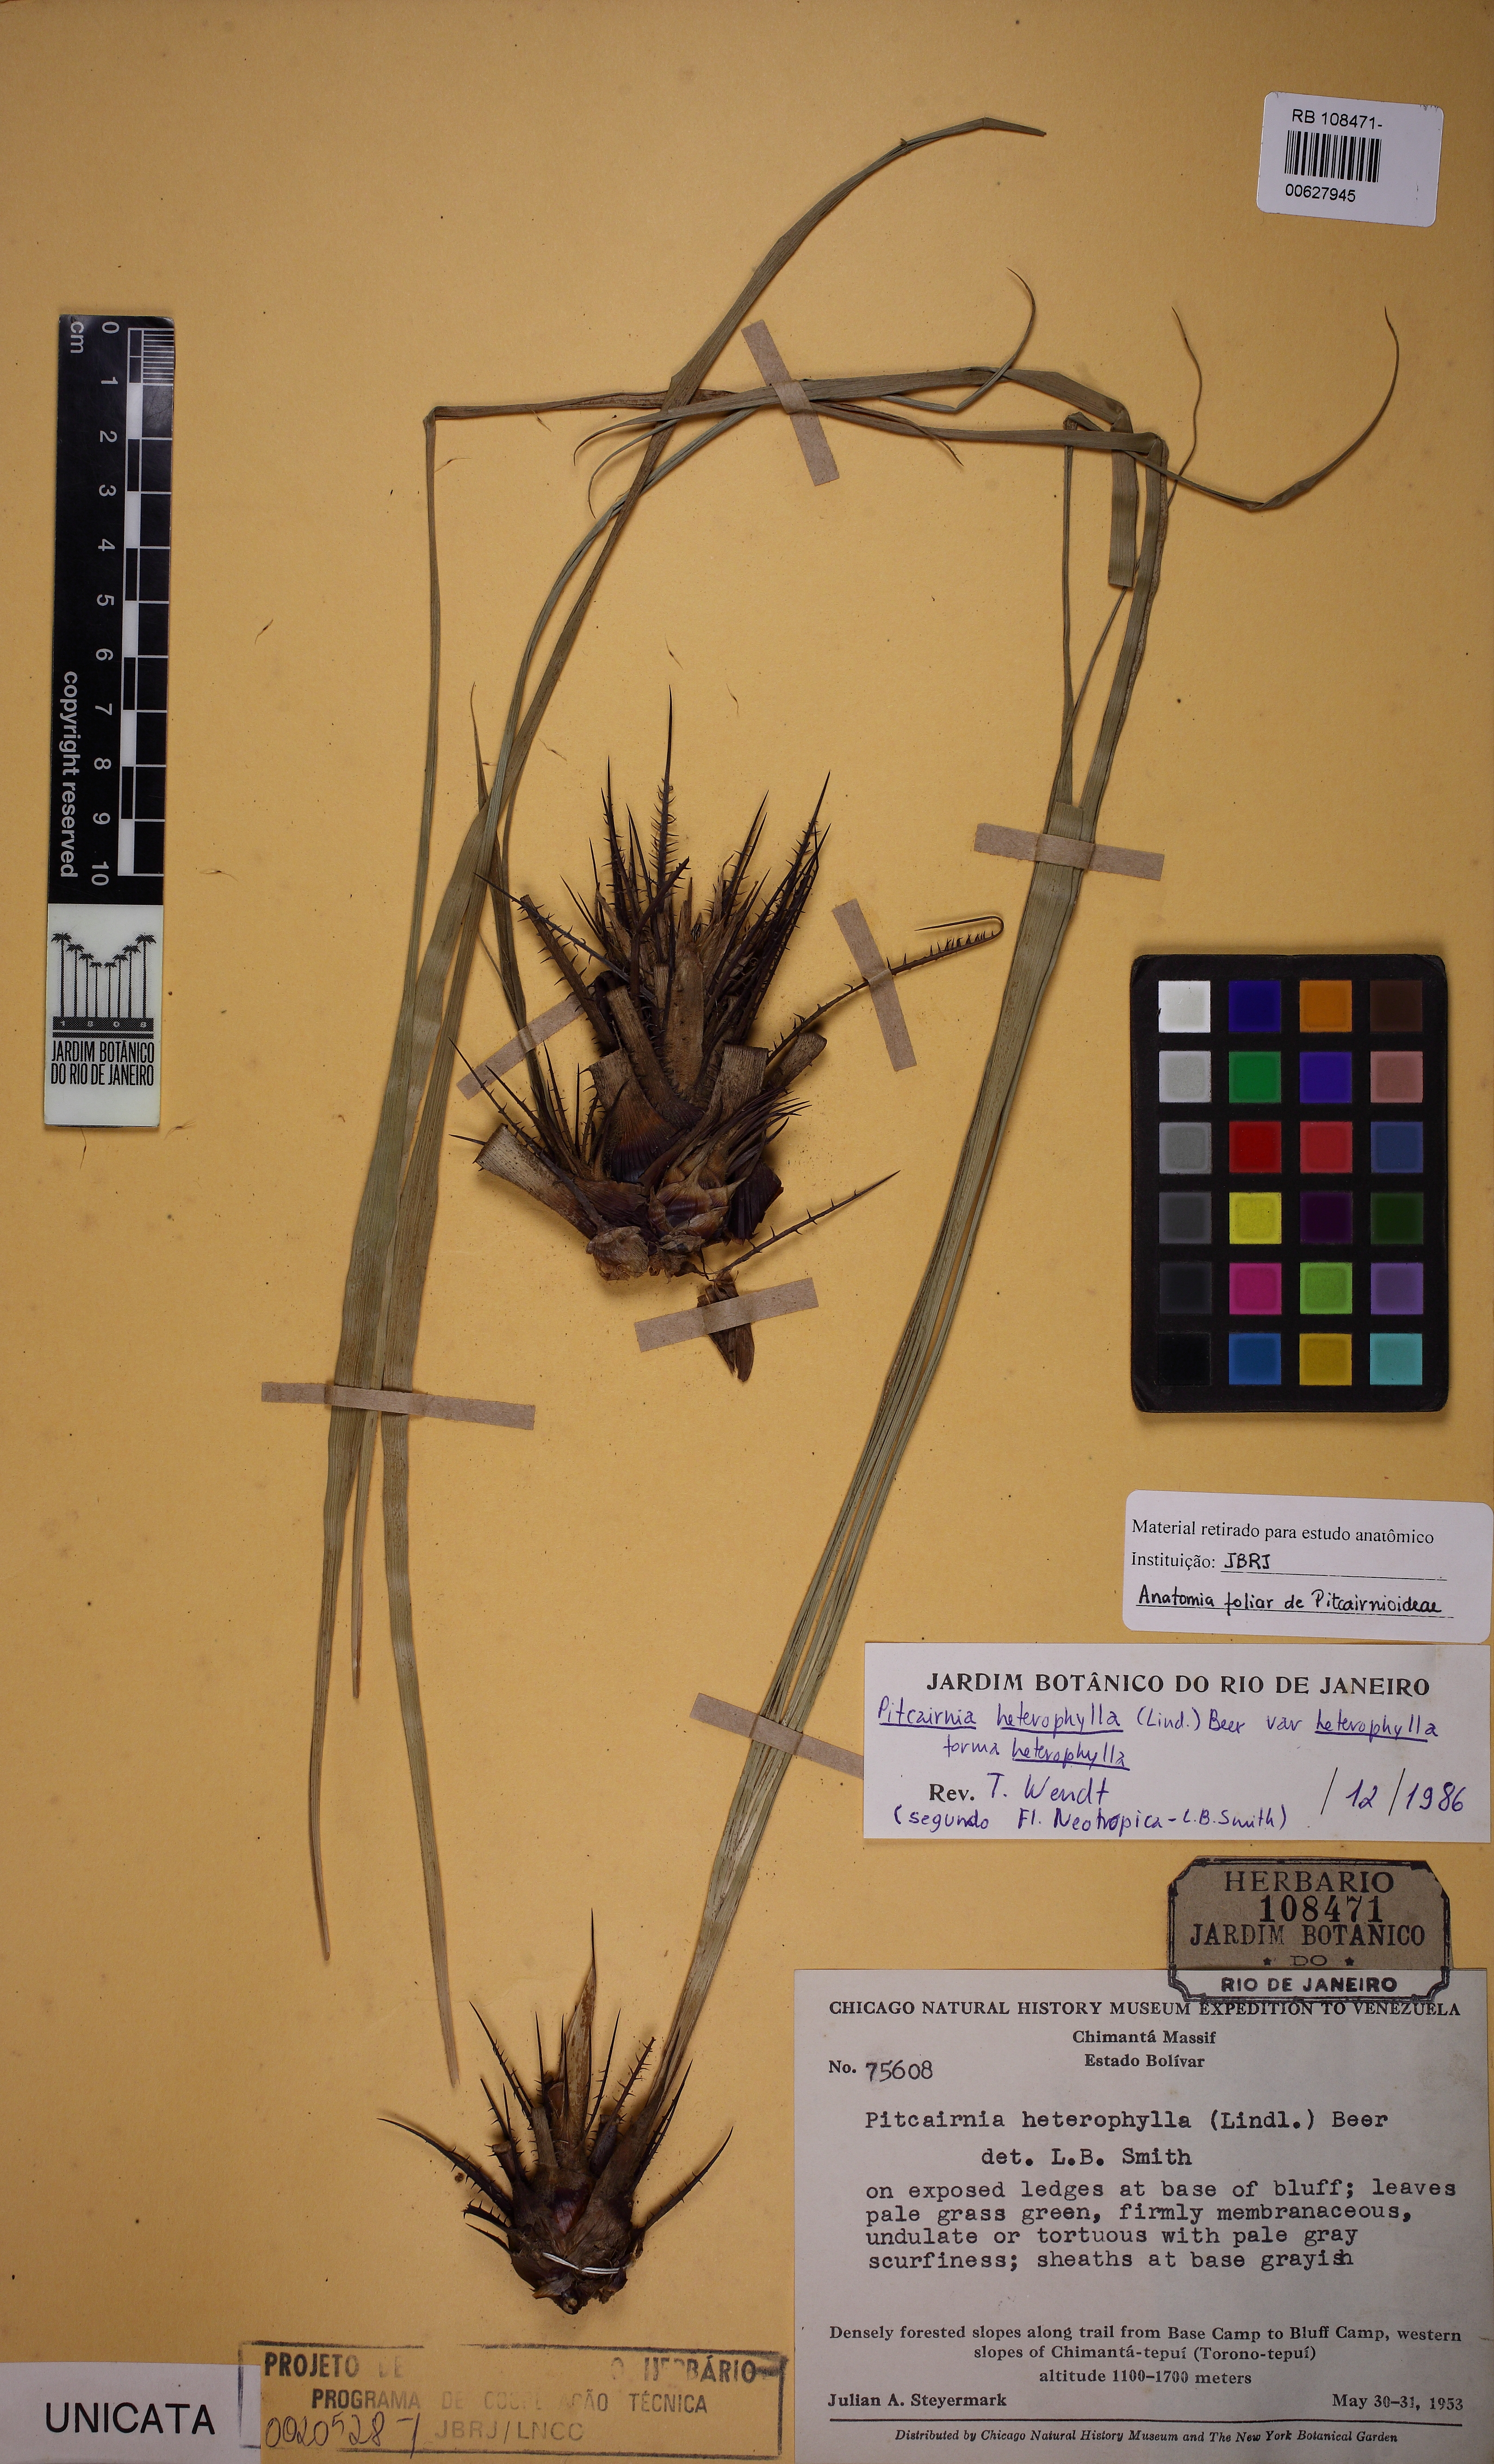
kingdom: Plantae
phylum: Tracheophyta
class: Liliopsida
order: Poales
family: Bromeliaceae
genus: Pitcairnia
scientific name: Pitcairnia heterophylla
